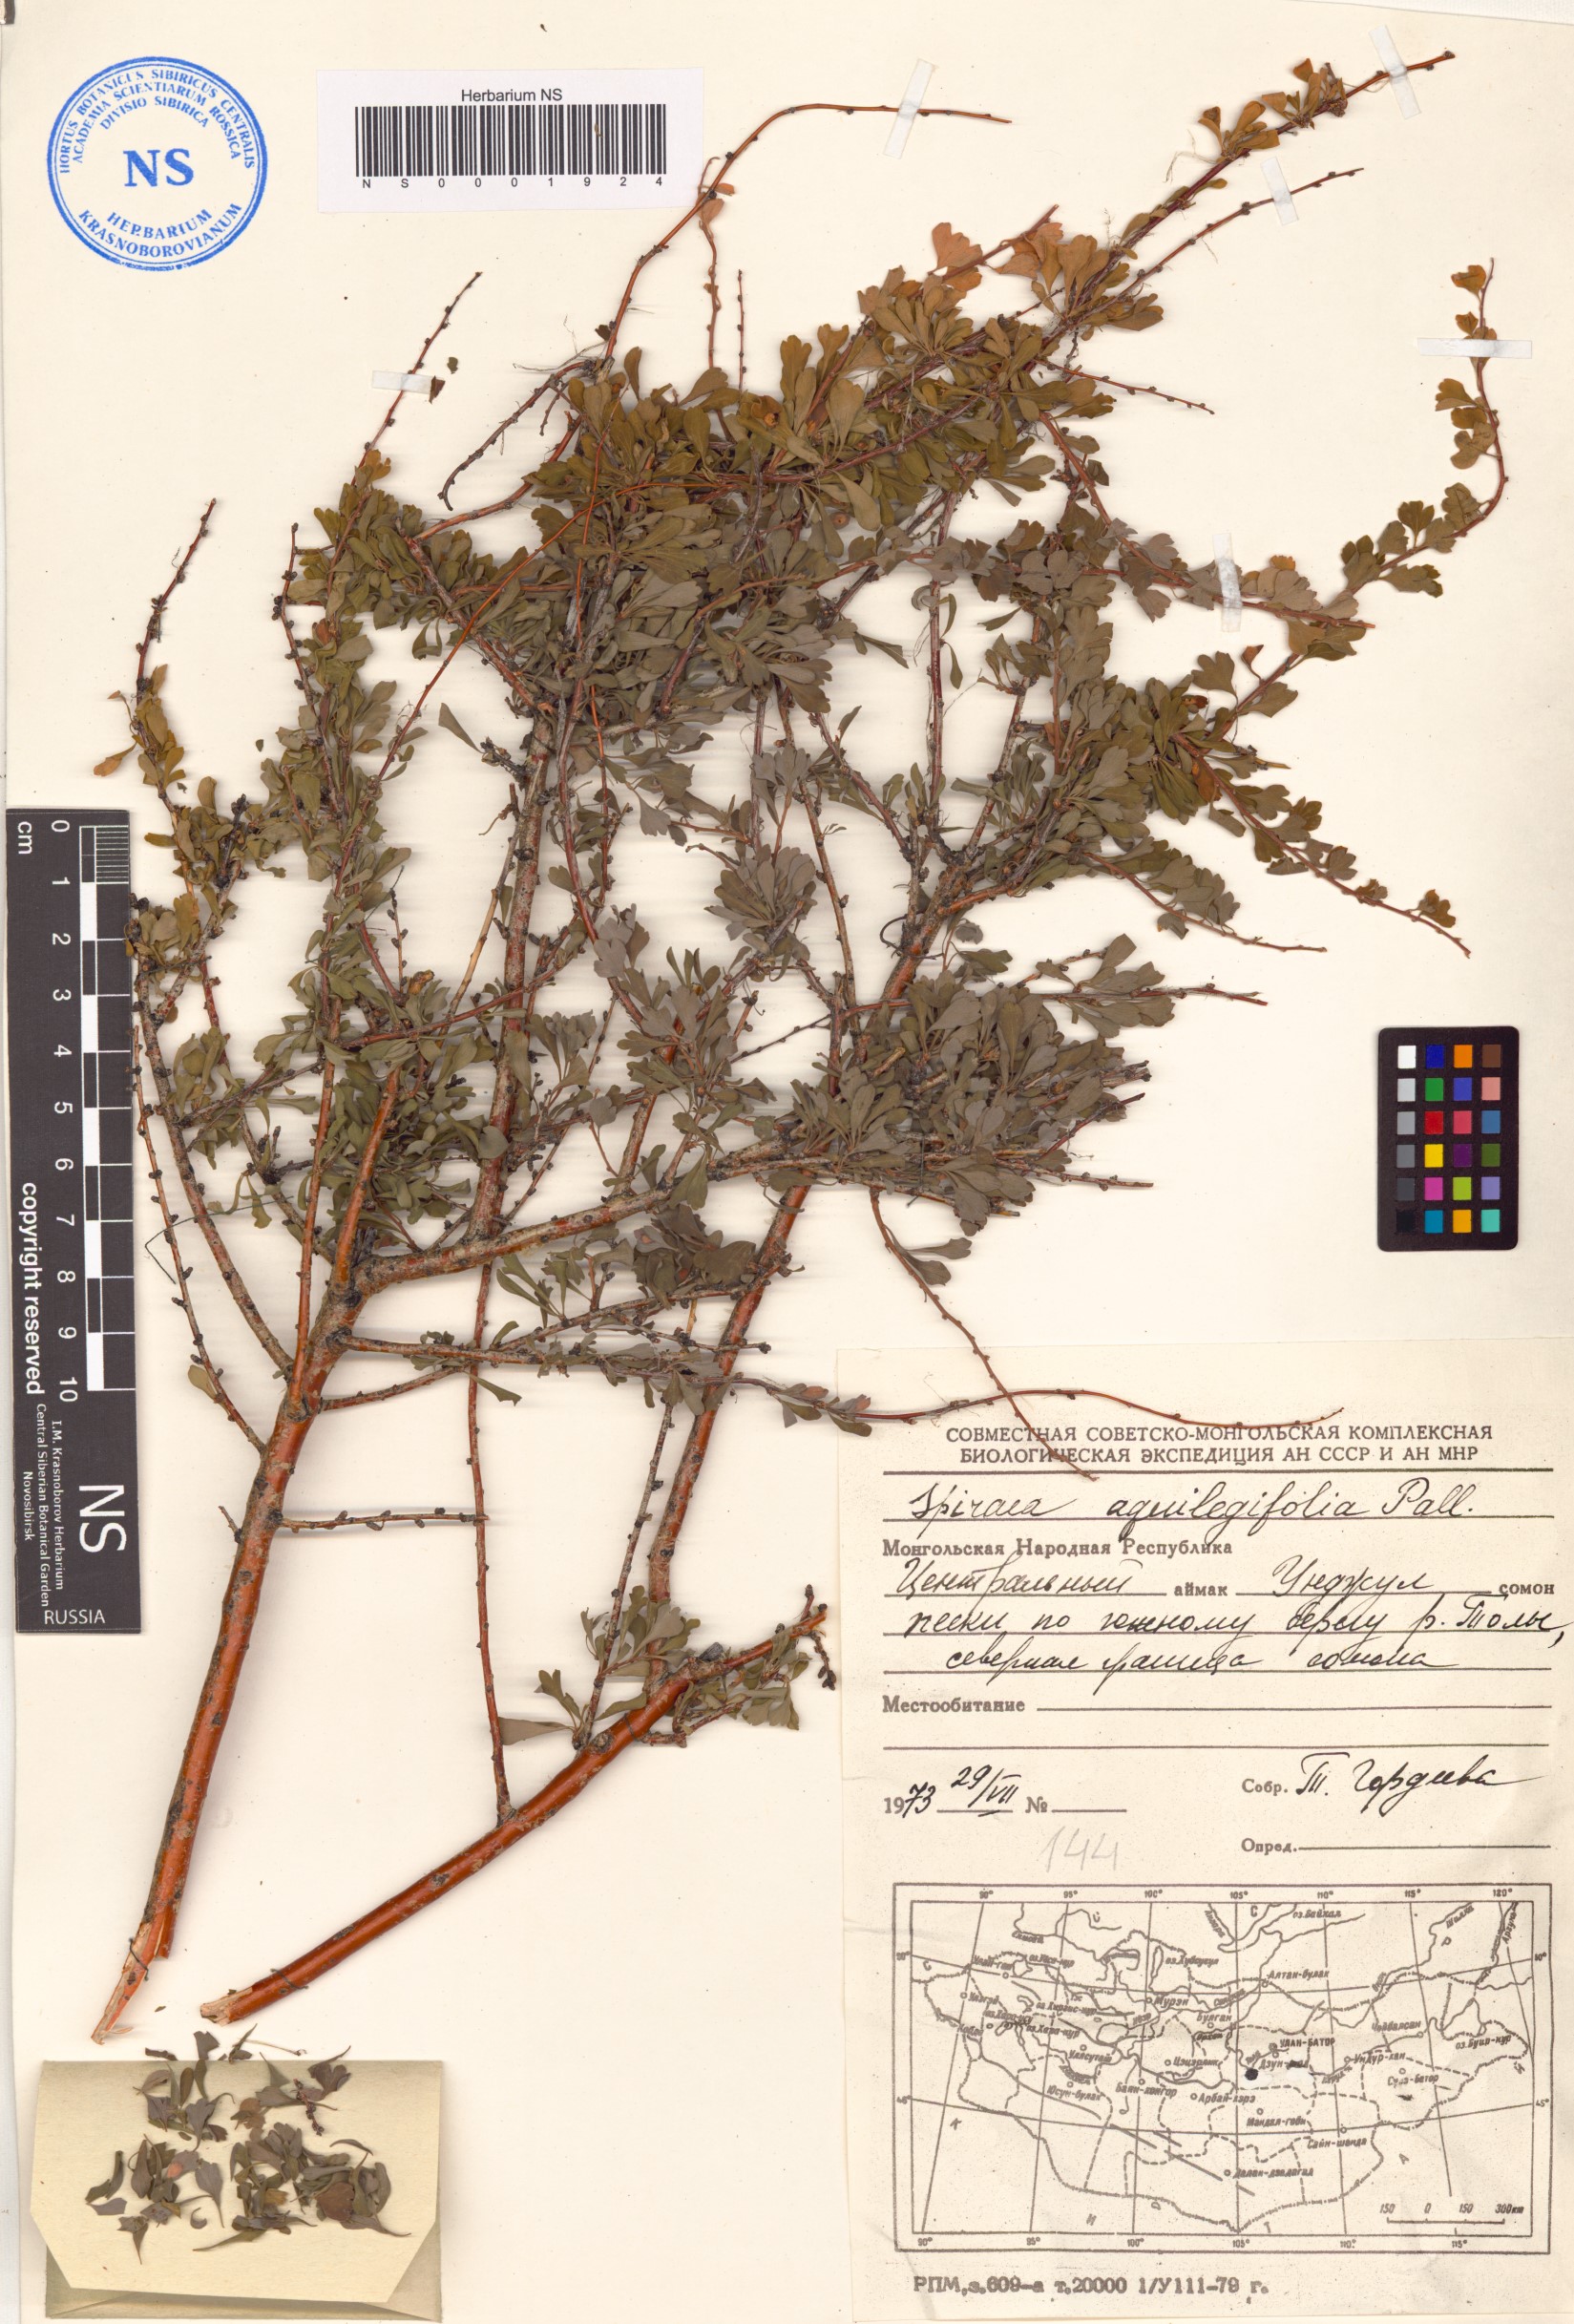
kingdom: Plantae
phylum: Tracheophyta
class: Magnoliopsida
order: Rosales
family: Rosaceae
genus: Spiraea
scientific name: Spiraea aquilegifolia
